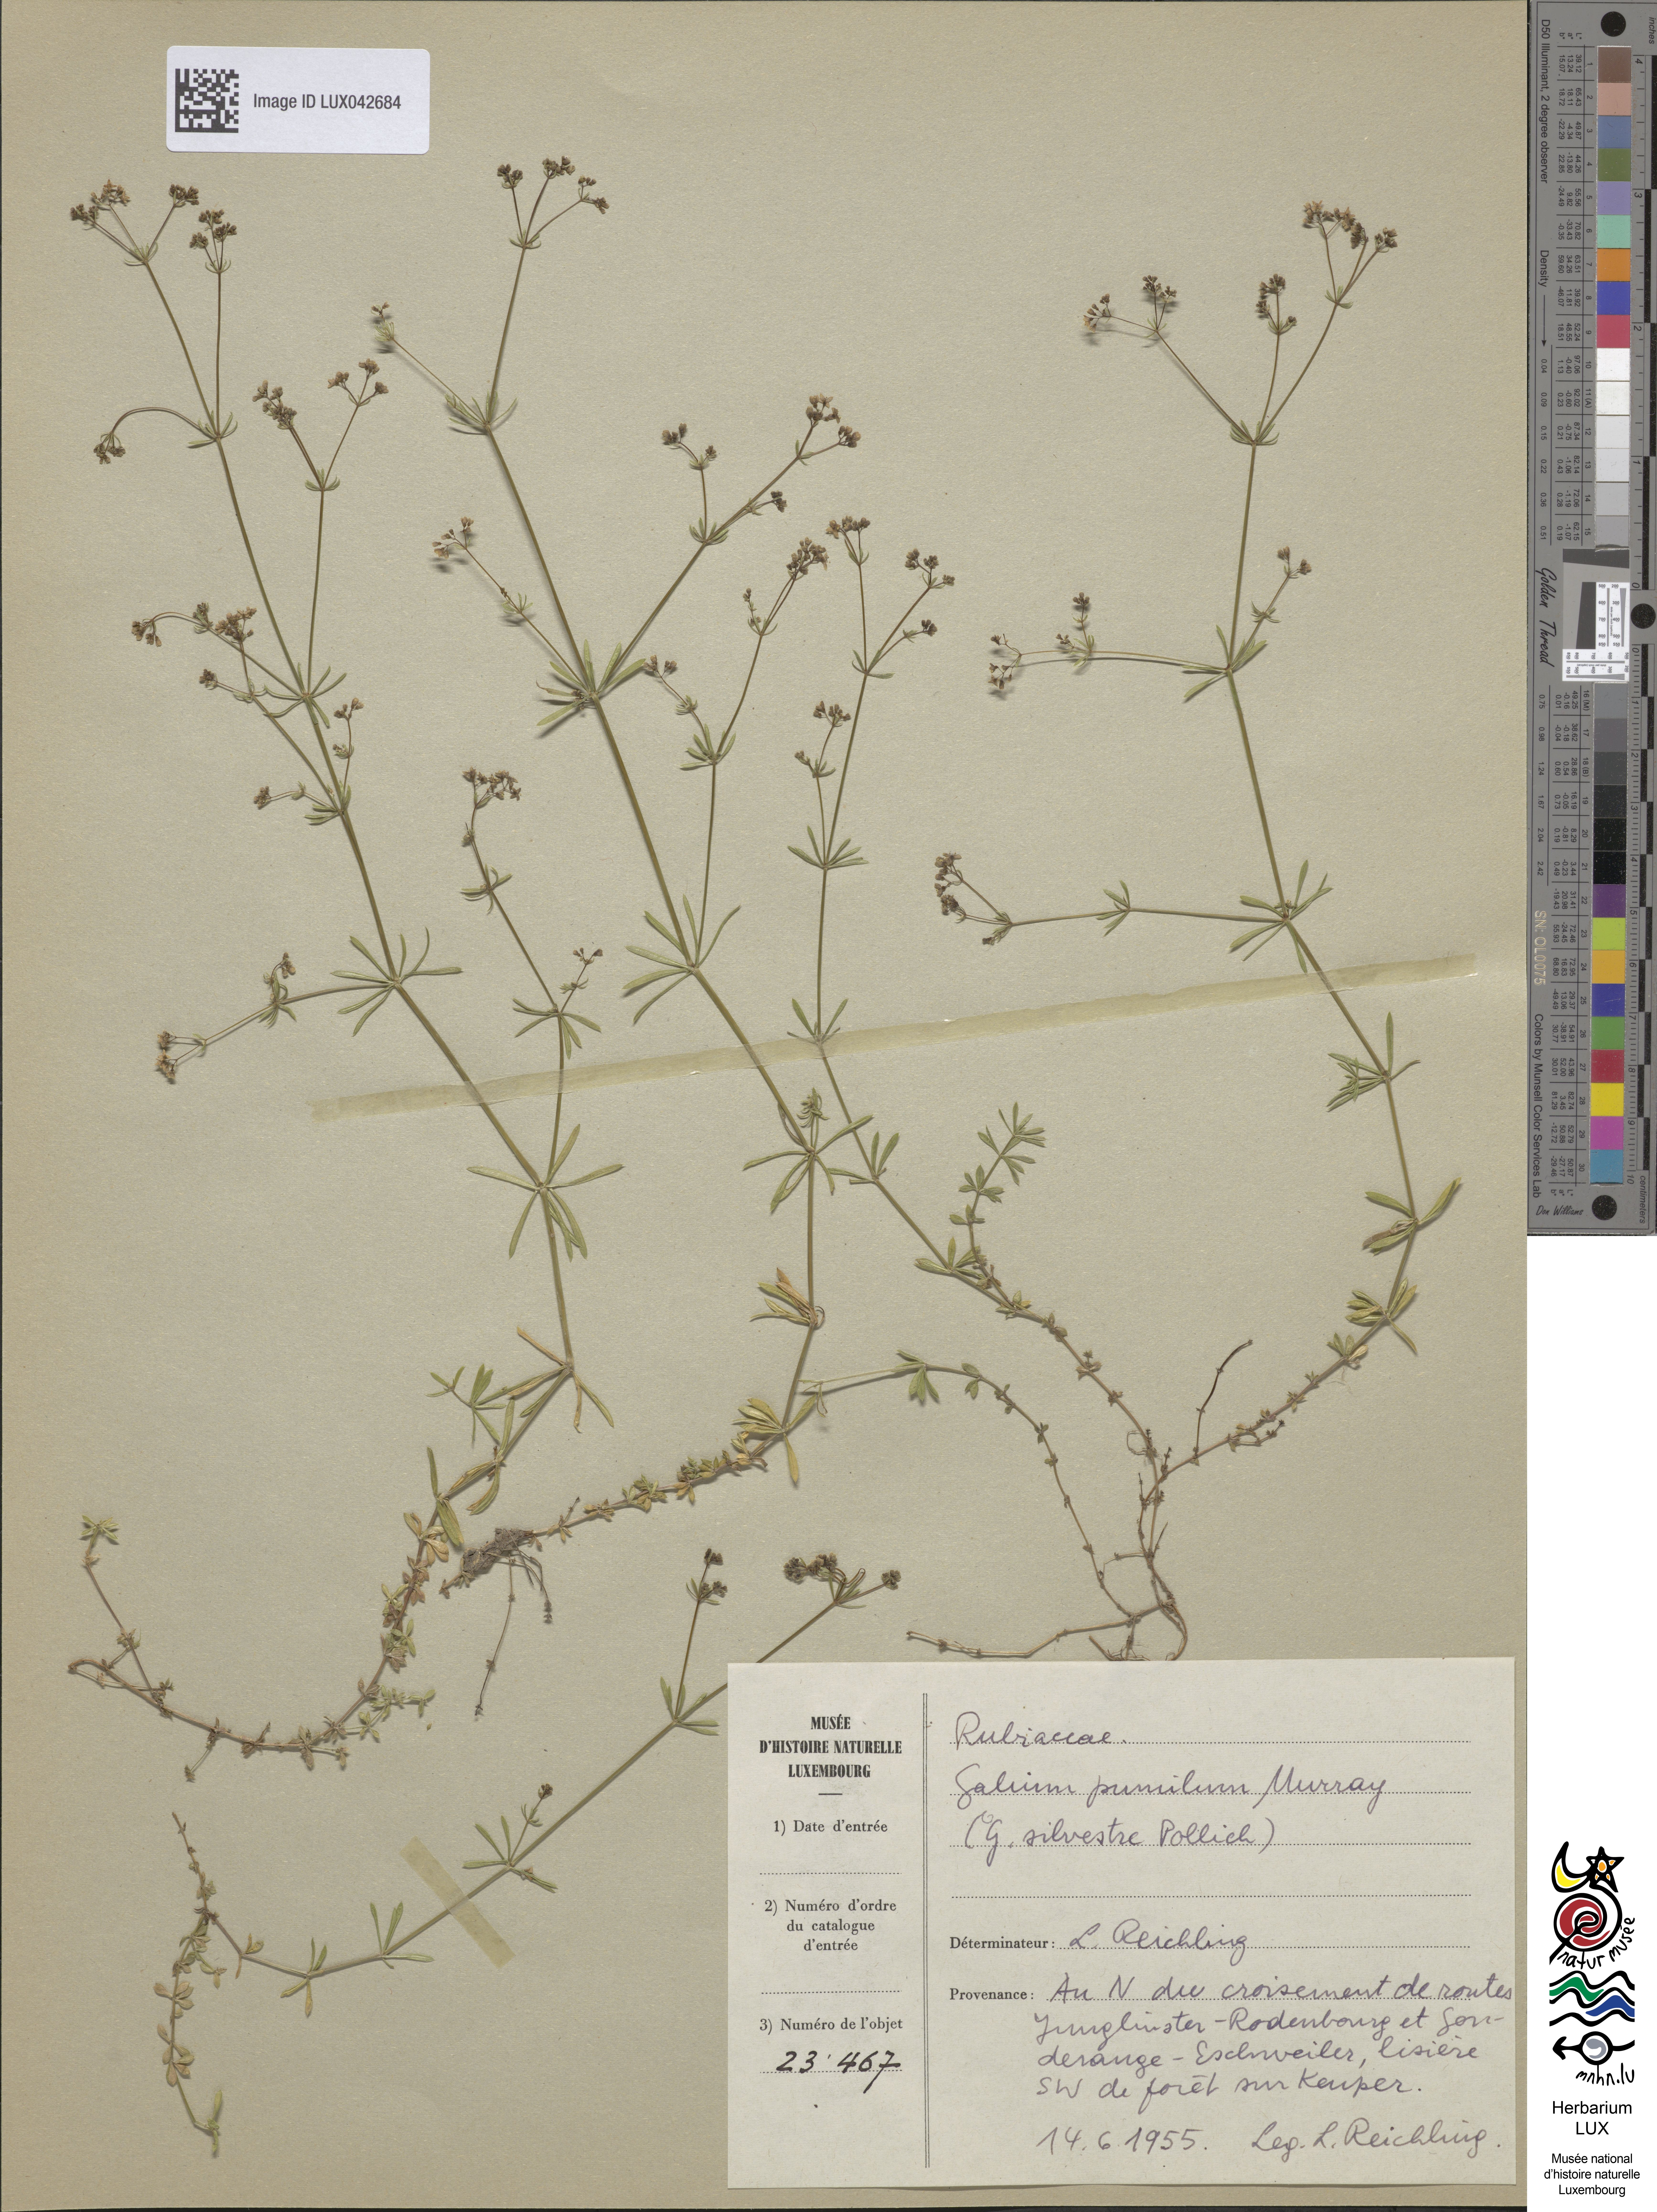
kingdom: Plantae
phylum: Tracheophyta
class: Magnoliopsida
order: Gentianales
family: Rubiaceae
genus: Galium
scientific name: Galium pumilum
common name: Slender bedstraw
